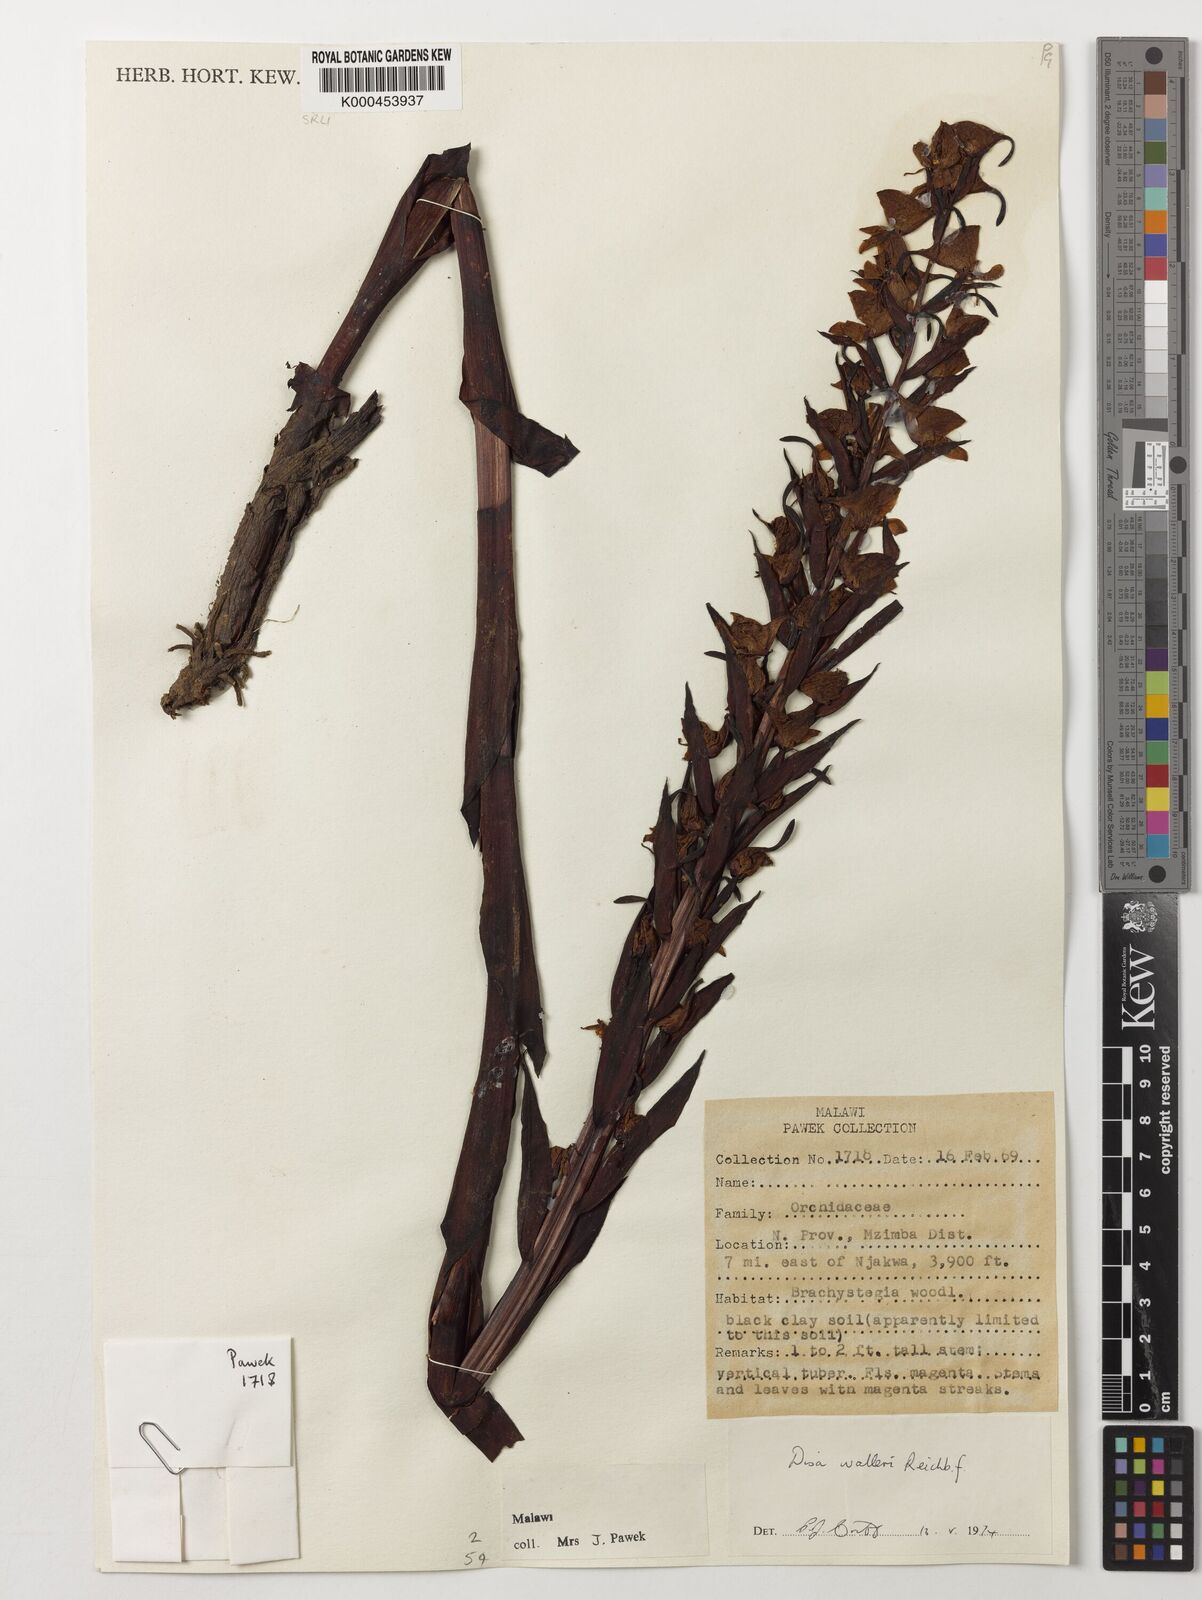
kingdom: Plantae
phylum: Tracheophyta
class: Liliopsida
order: Asparagales
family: Orchidaceae
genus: Disa
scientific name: Disa walleri
